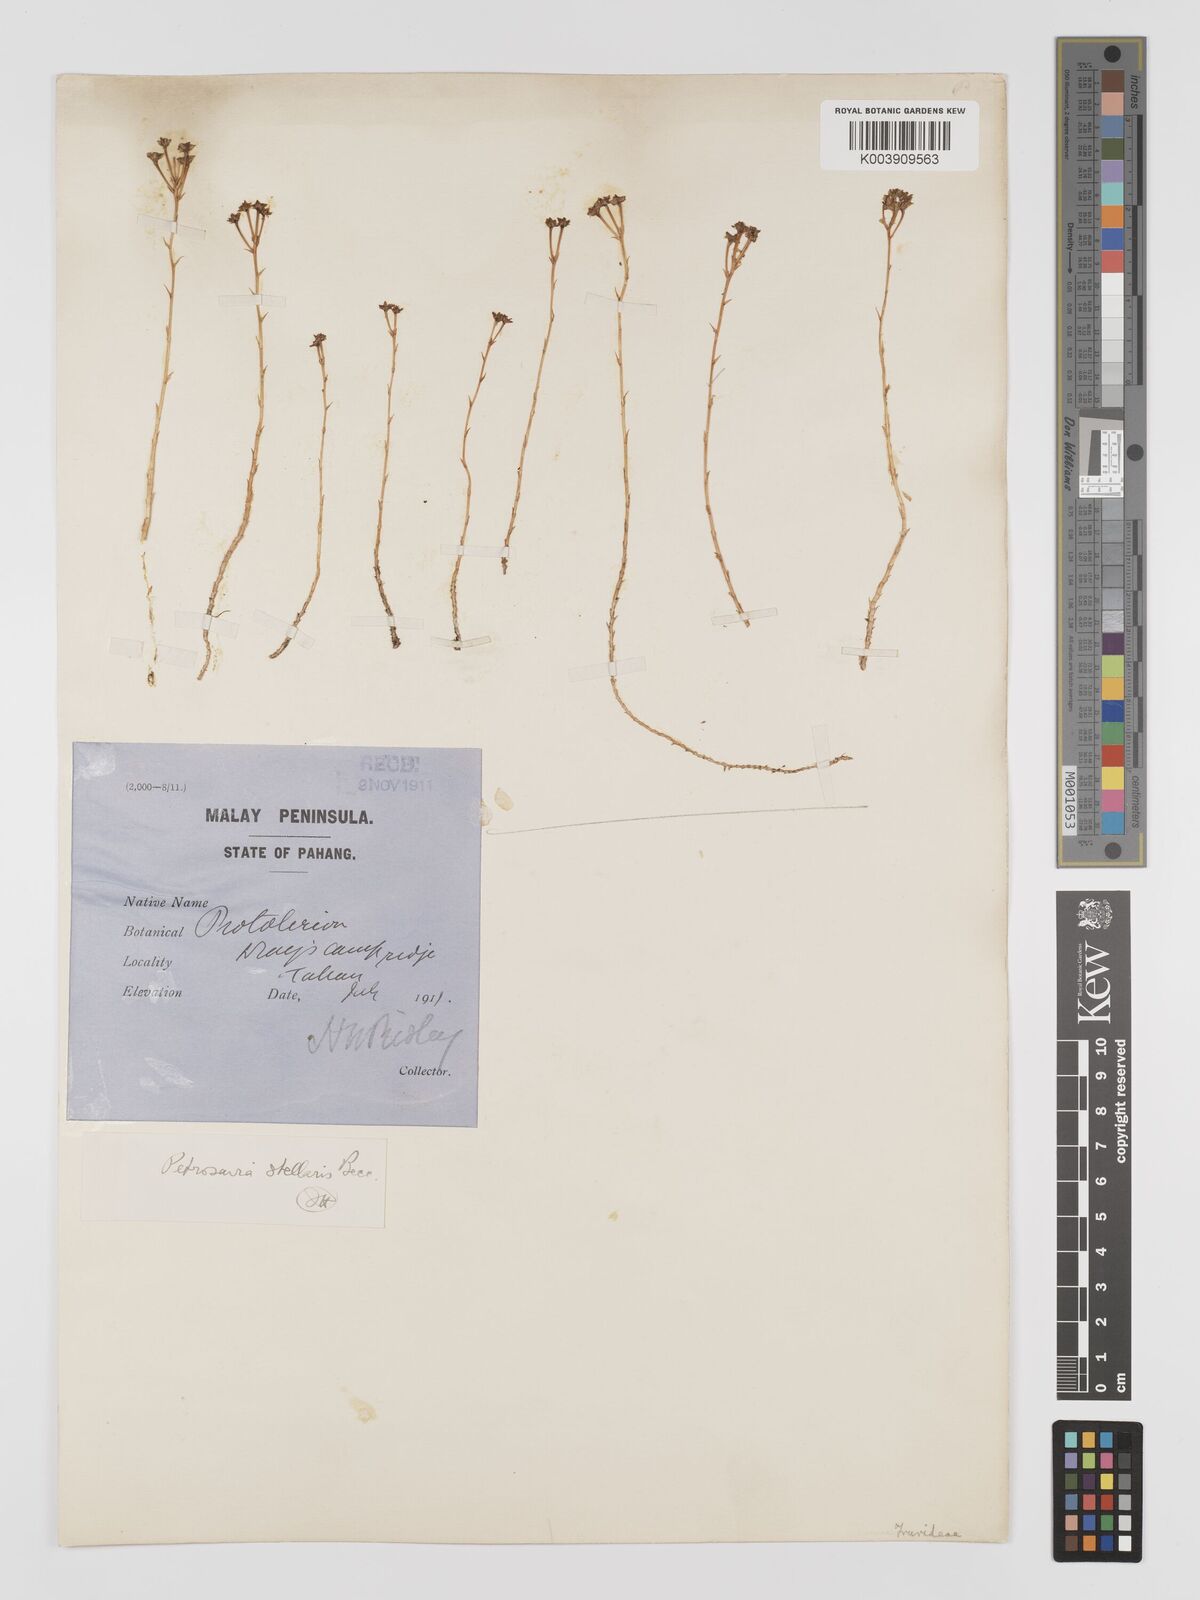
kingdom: Plantae
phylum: Tracheophyta
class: Liliopsida
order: Petrosaviales
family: Petrosaviaceae
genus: Petrosavia
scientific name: Petrosavia stellaris
